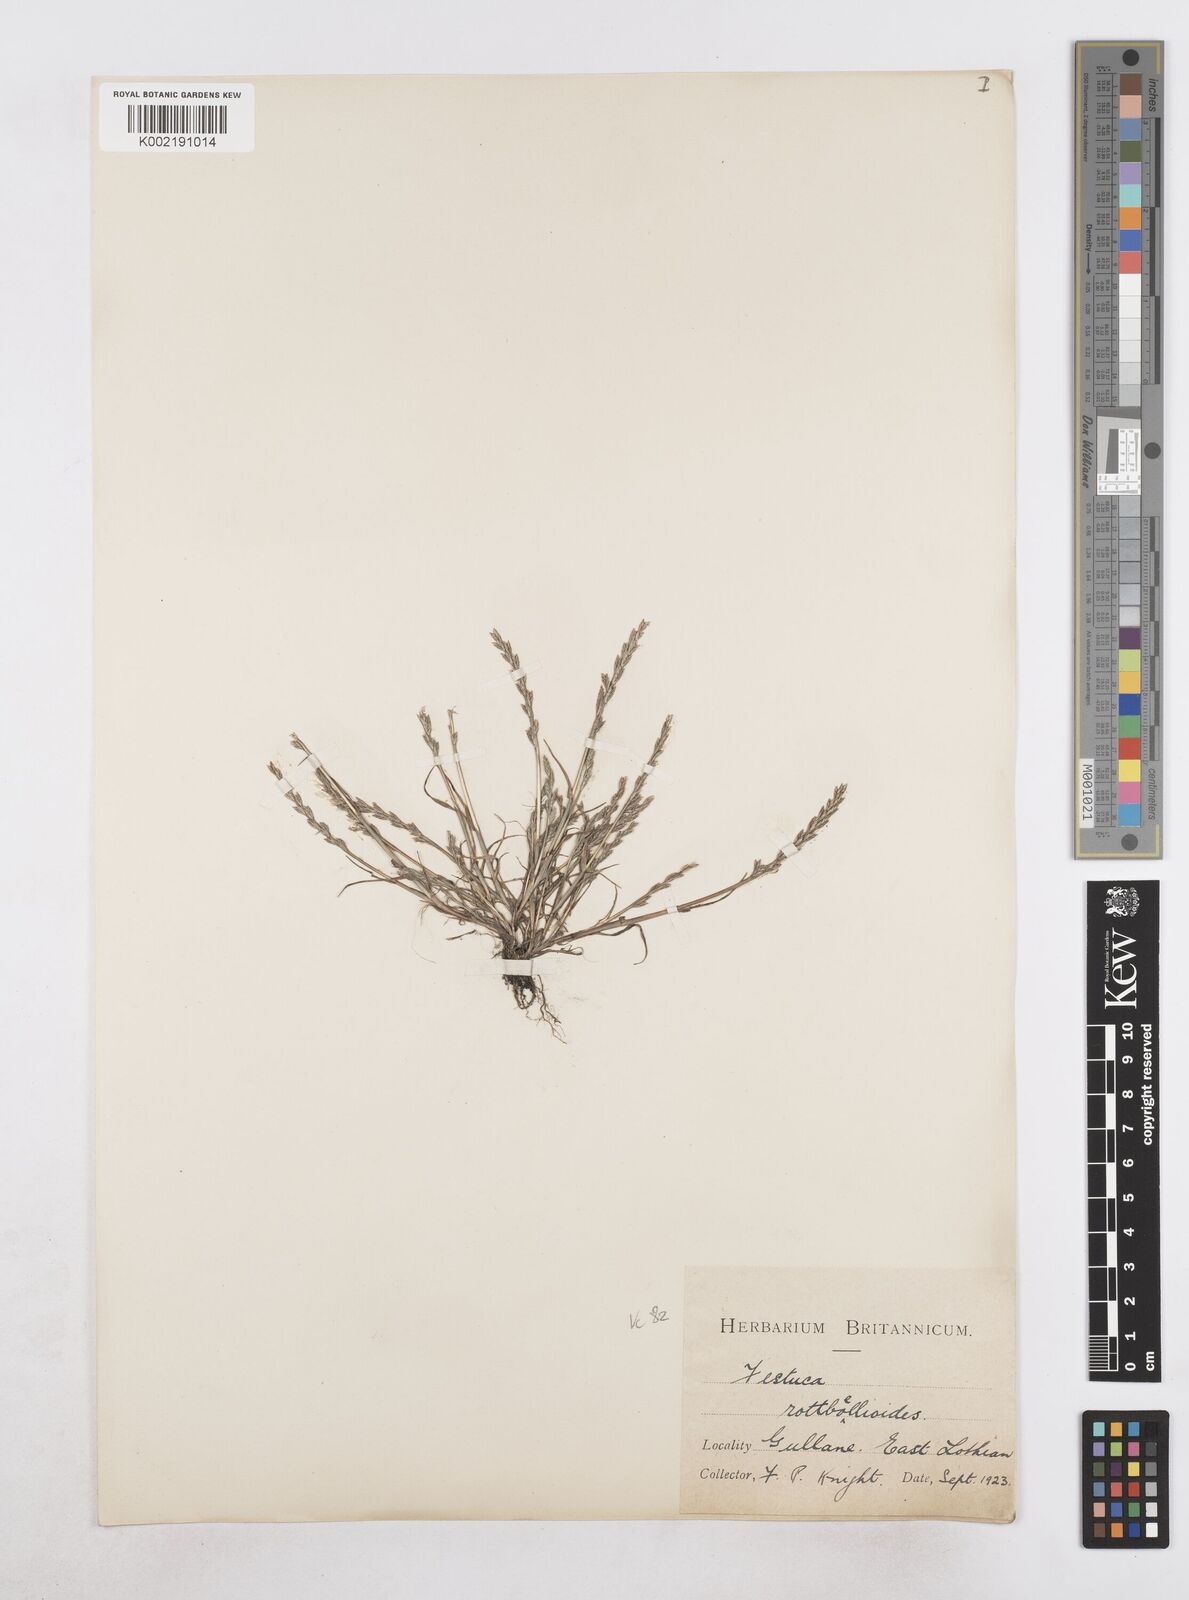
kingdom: Plantae
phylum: Tracheophyta
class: Liliopsida
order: Poales
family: Poaceae
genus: Catapodium
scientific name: Catapodium marinum
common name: Sea fern-grass
